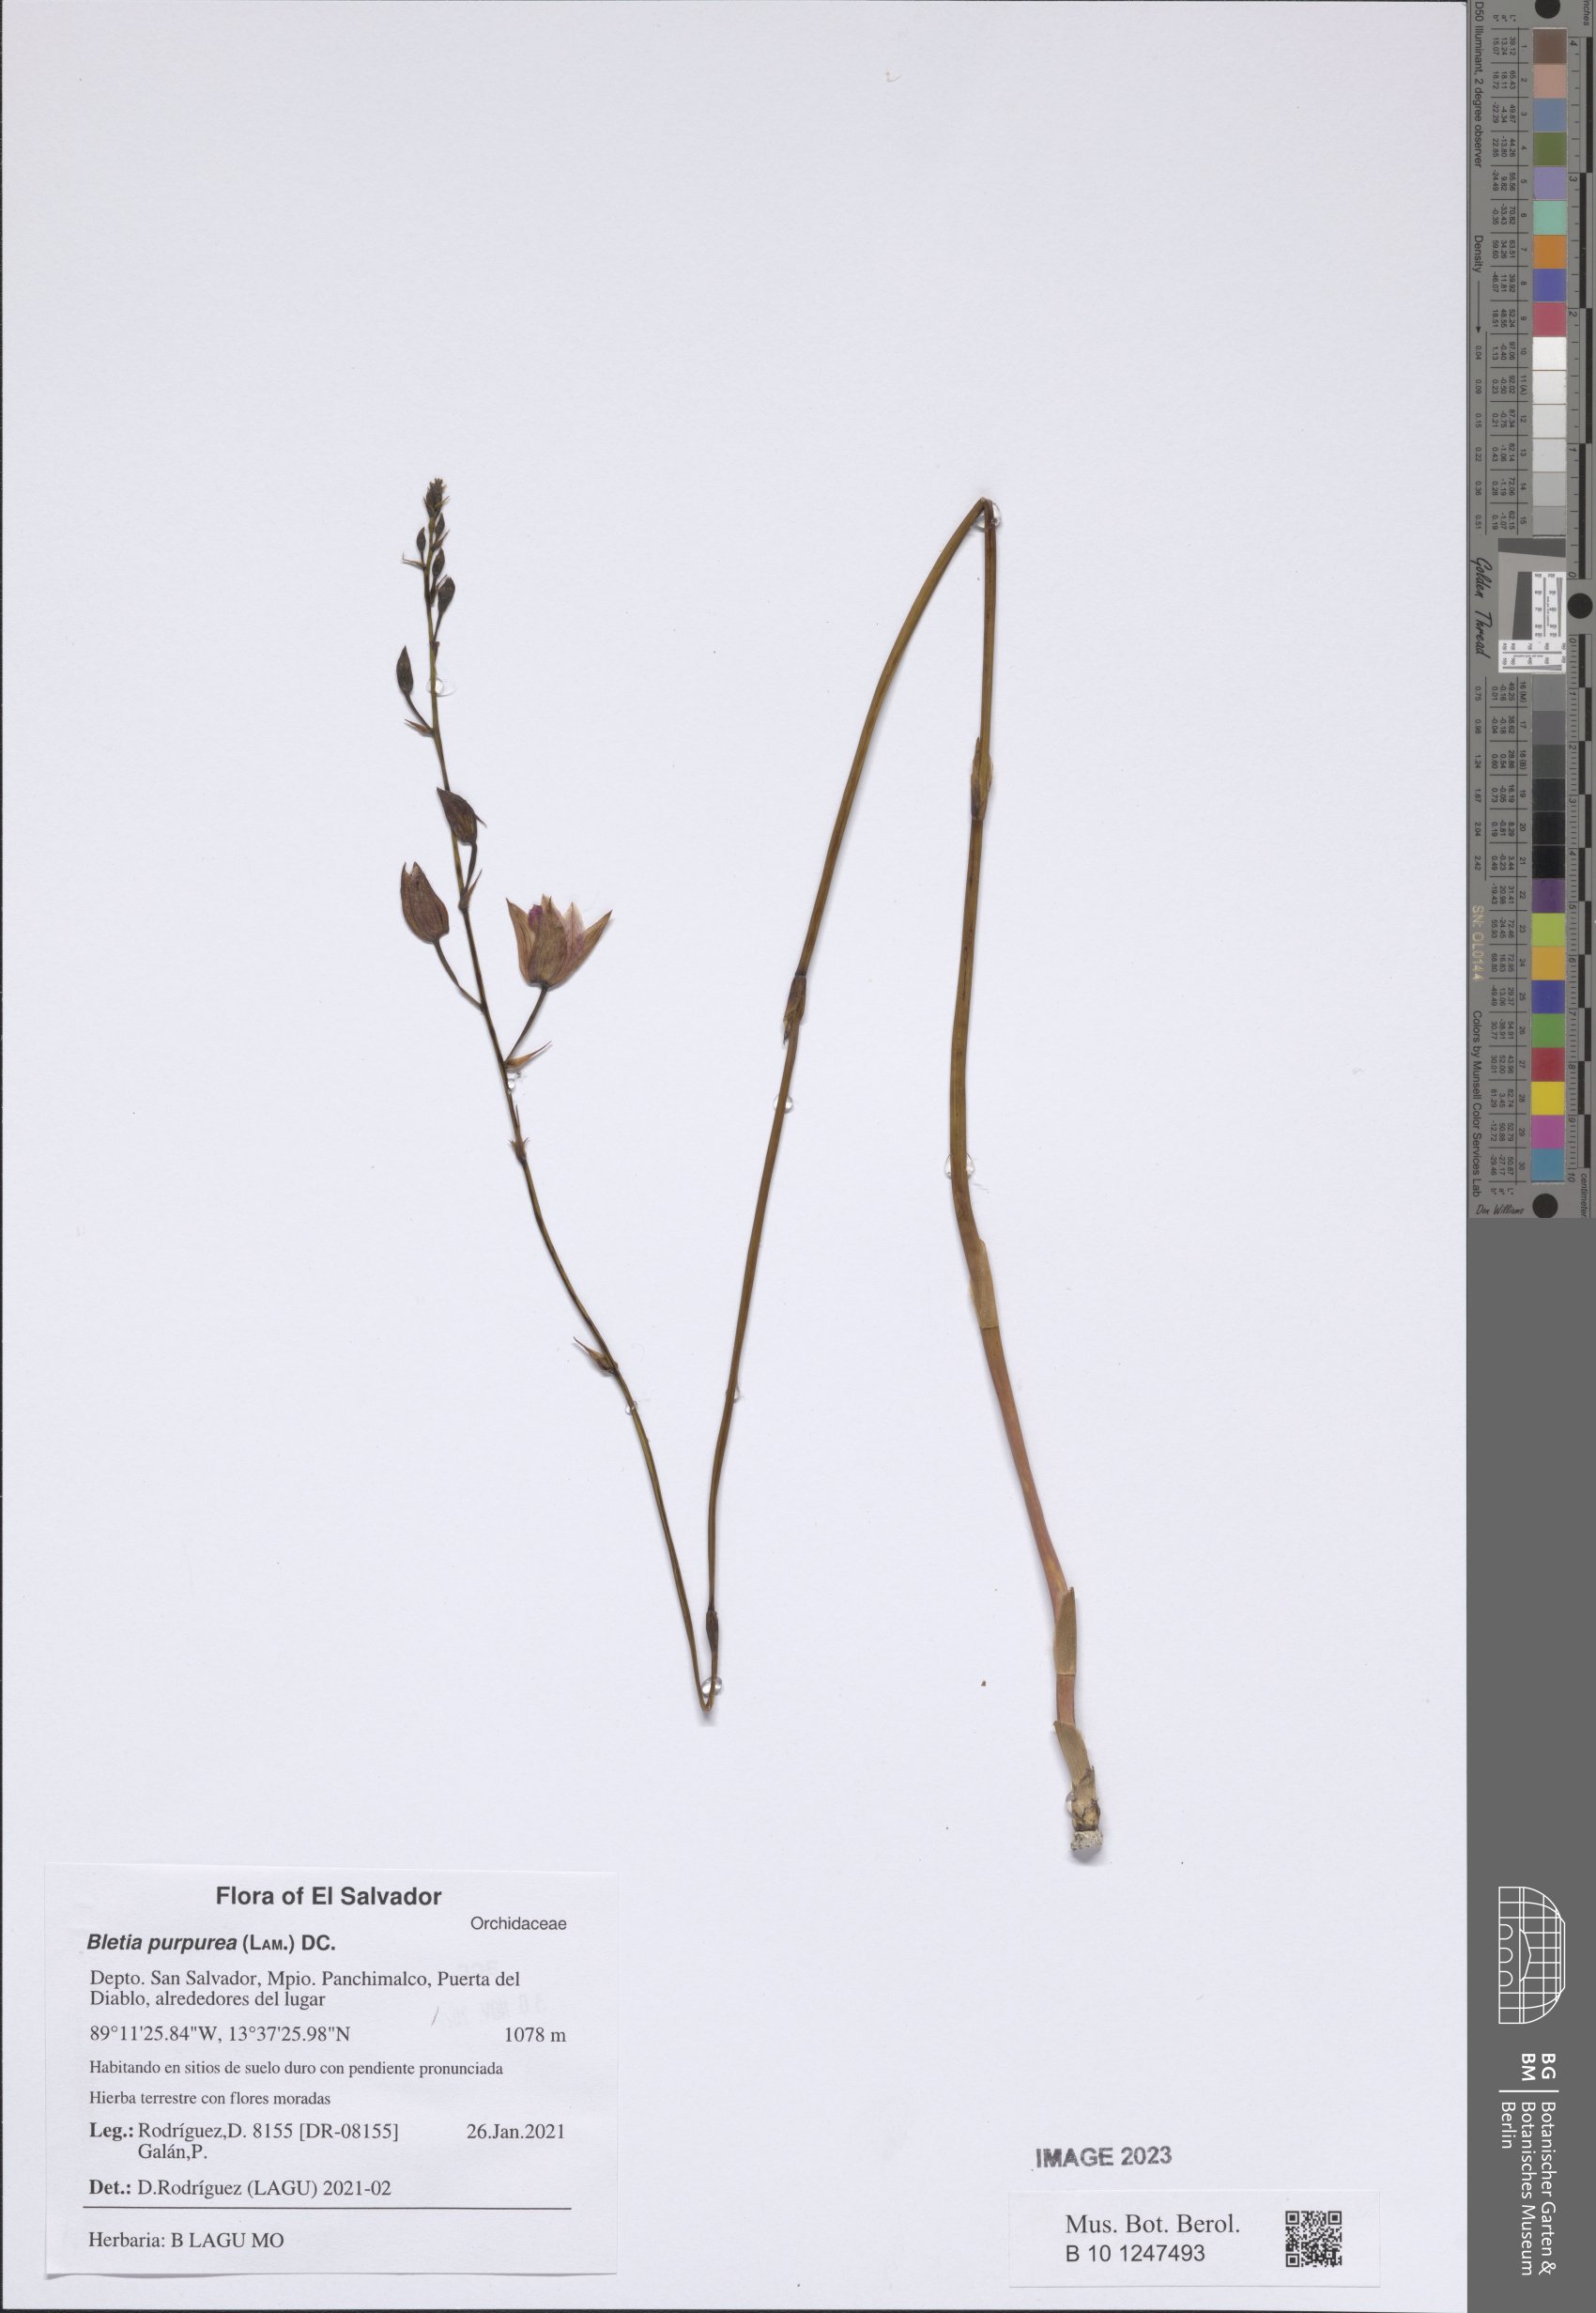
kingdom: Plantae
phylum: Tracheophyta
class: Liliopsida
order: Asparagales
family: Orchidaceae
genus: Bletia
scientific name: Bletia purpurea
